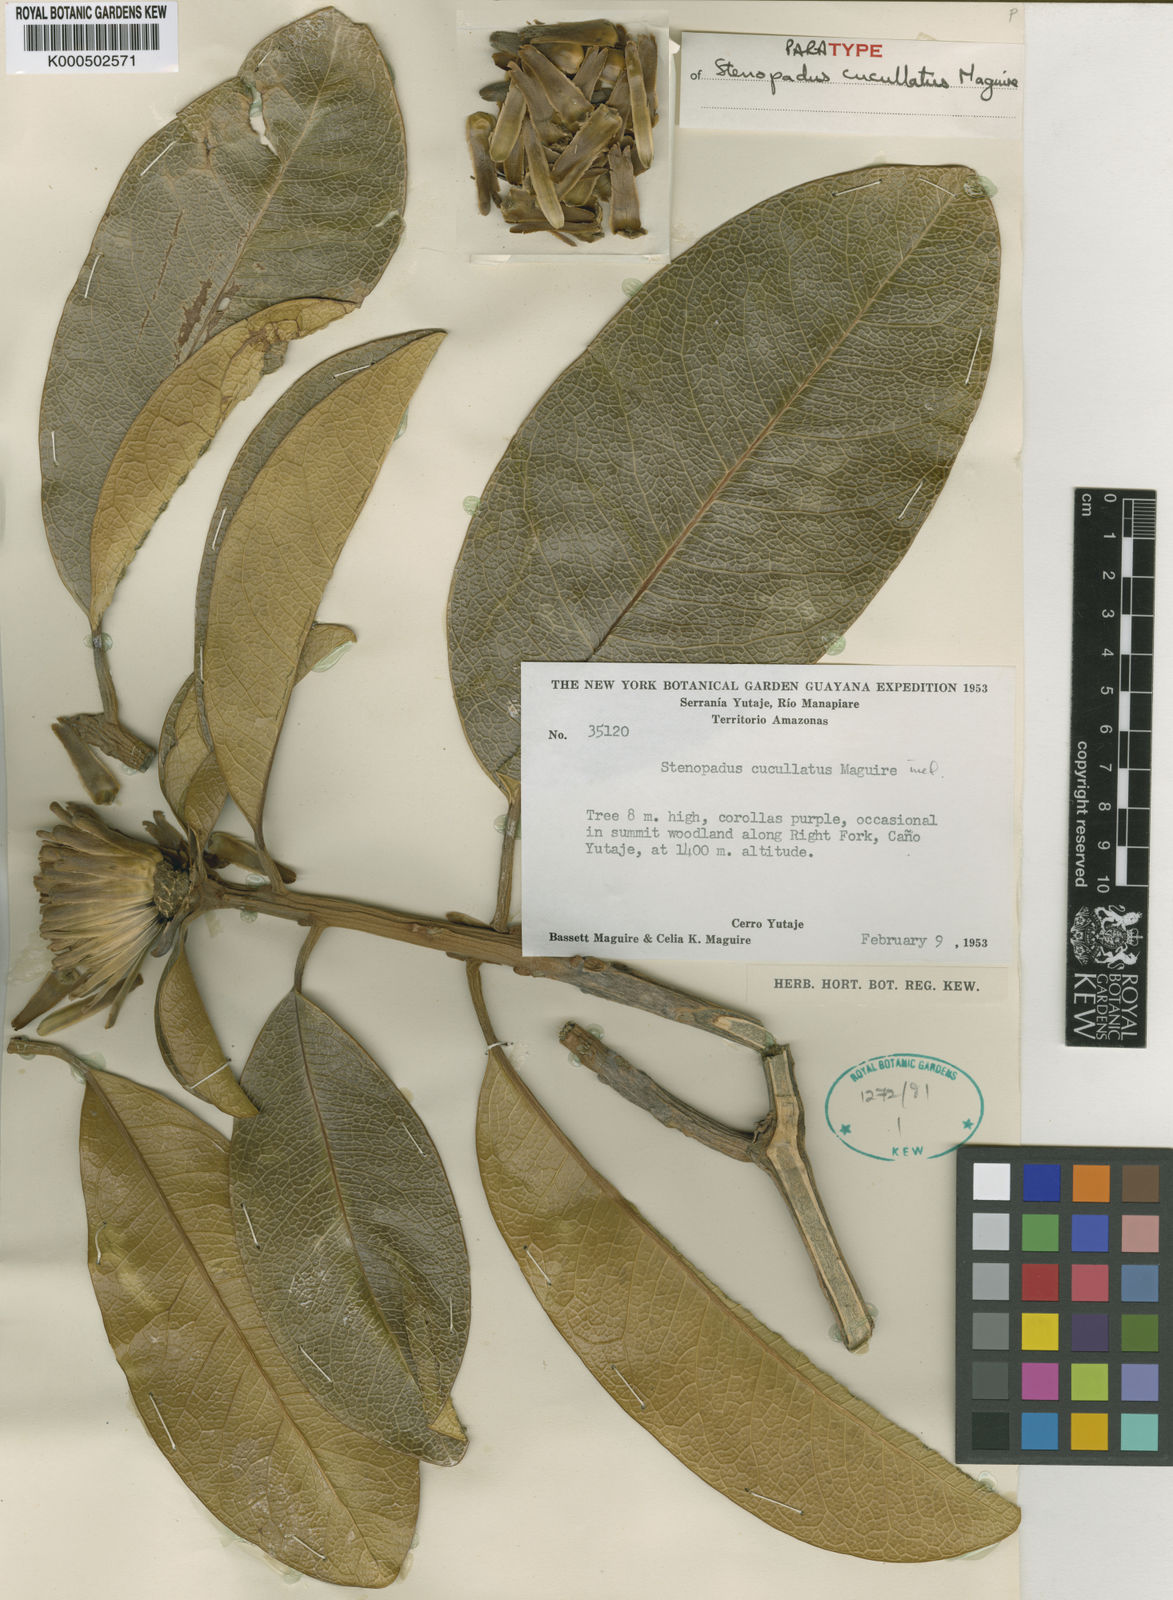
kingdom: Plantae
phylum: Tracheophyta
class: Magnoliopsida
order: Asterales
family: Asteraceae
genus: Stenopadus
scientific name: Stenopadus cucullatus
